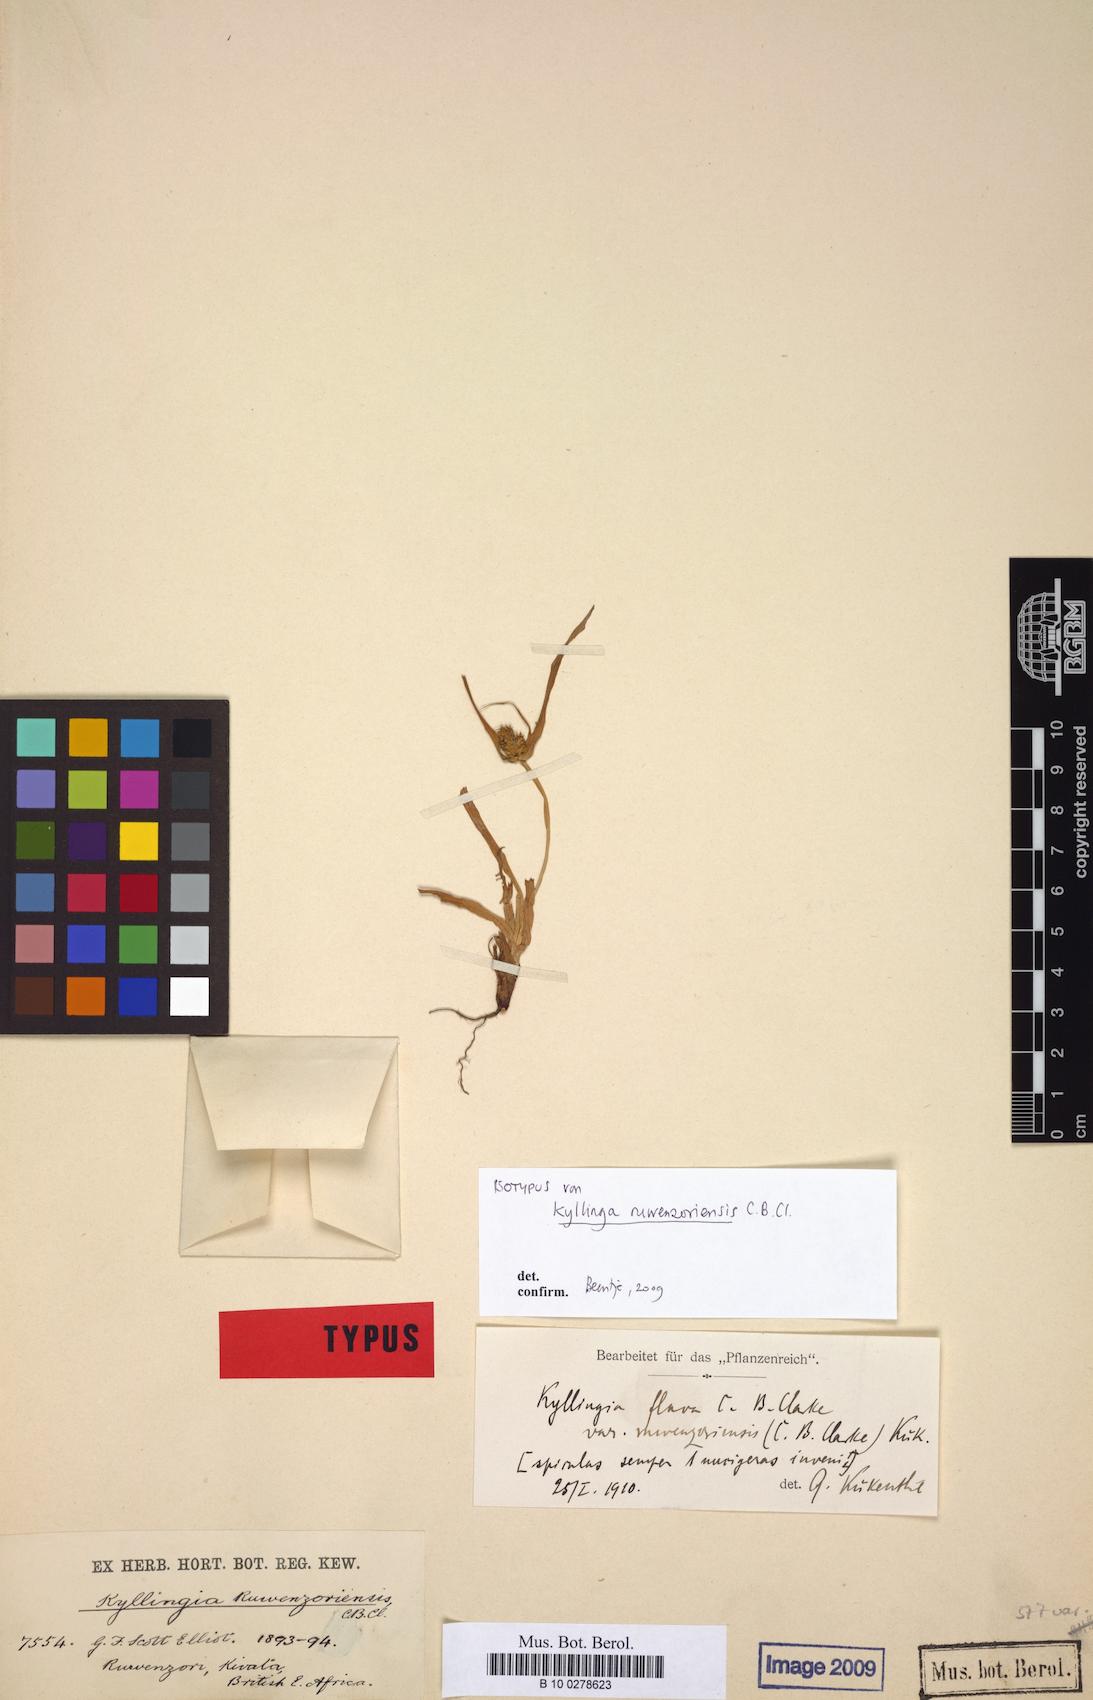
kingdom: Plantae
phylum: Tracheophyta
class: Liliopsida
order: Poales
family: Cyperaceae
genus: Cyperus
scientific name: Cyperus ruwenzoriensis
